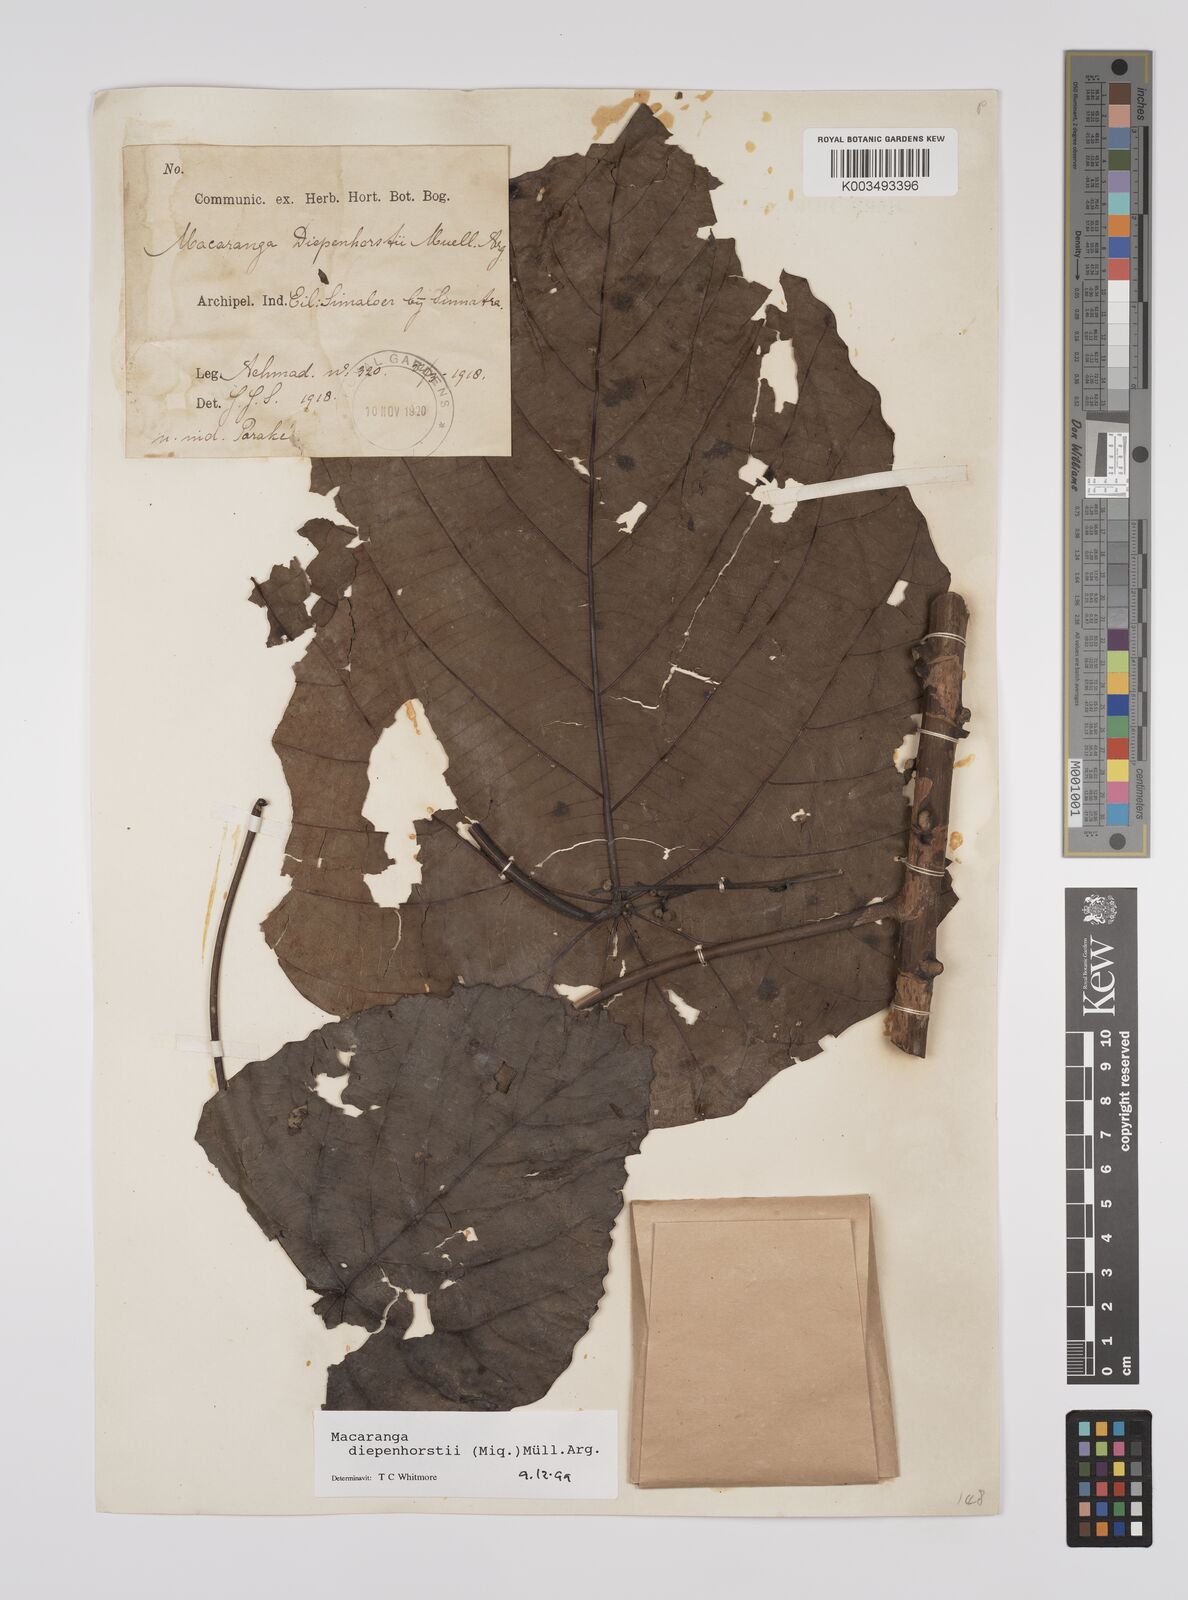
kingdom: Plantae
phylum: Tracheophyta
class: Magnoliopsida
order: Malpighiales
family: Euphorbiaceae
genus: Macaranga
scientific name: Macaranga diepenhorstii
